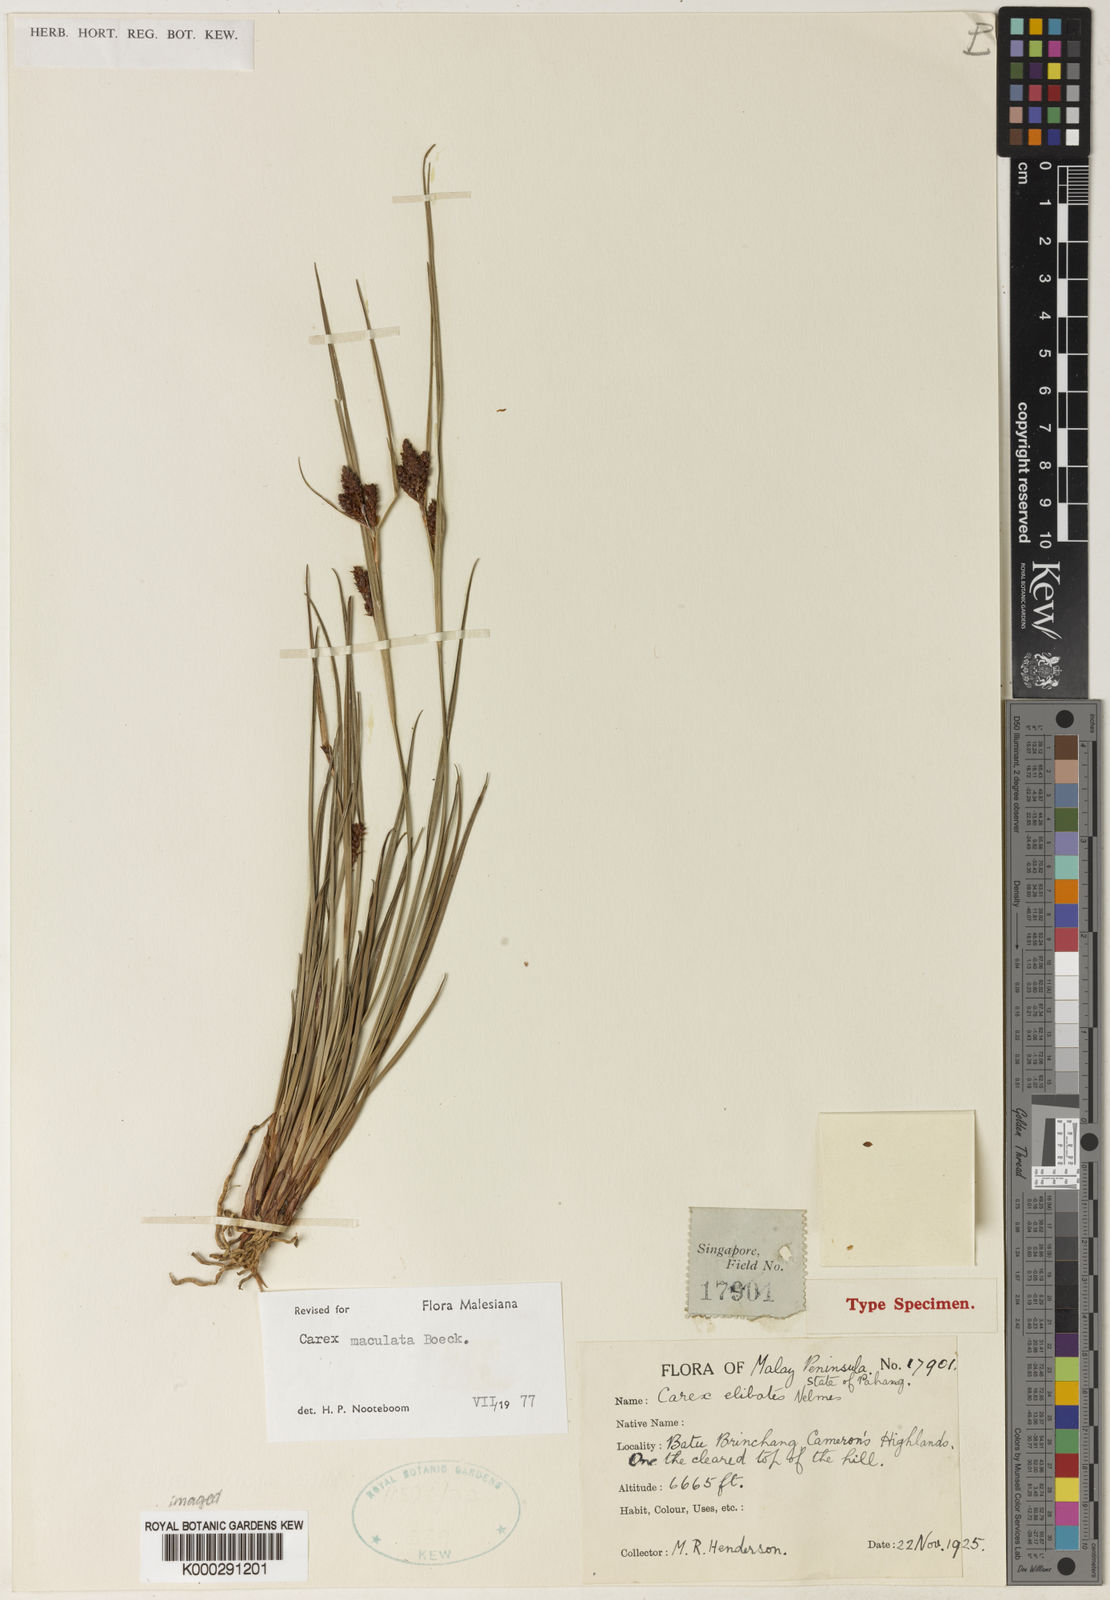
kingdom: Plantae
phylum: Tracheophyta
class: Liliopsida
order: Poales
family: Cyperaceae
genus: Carex
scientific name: Carex maculata
